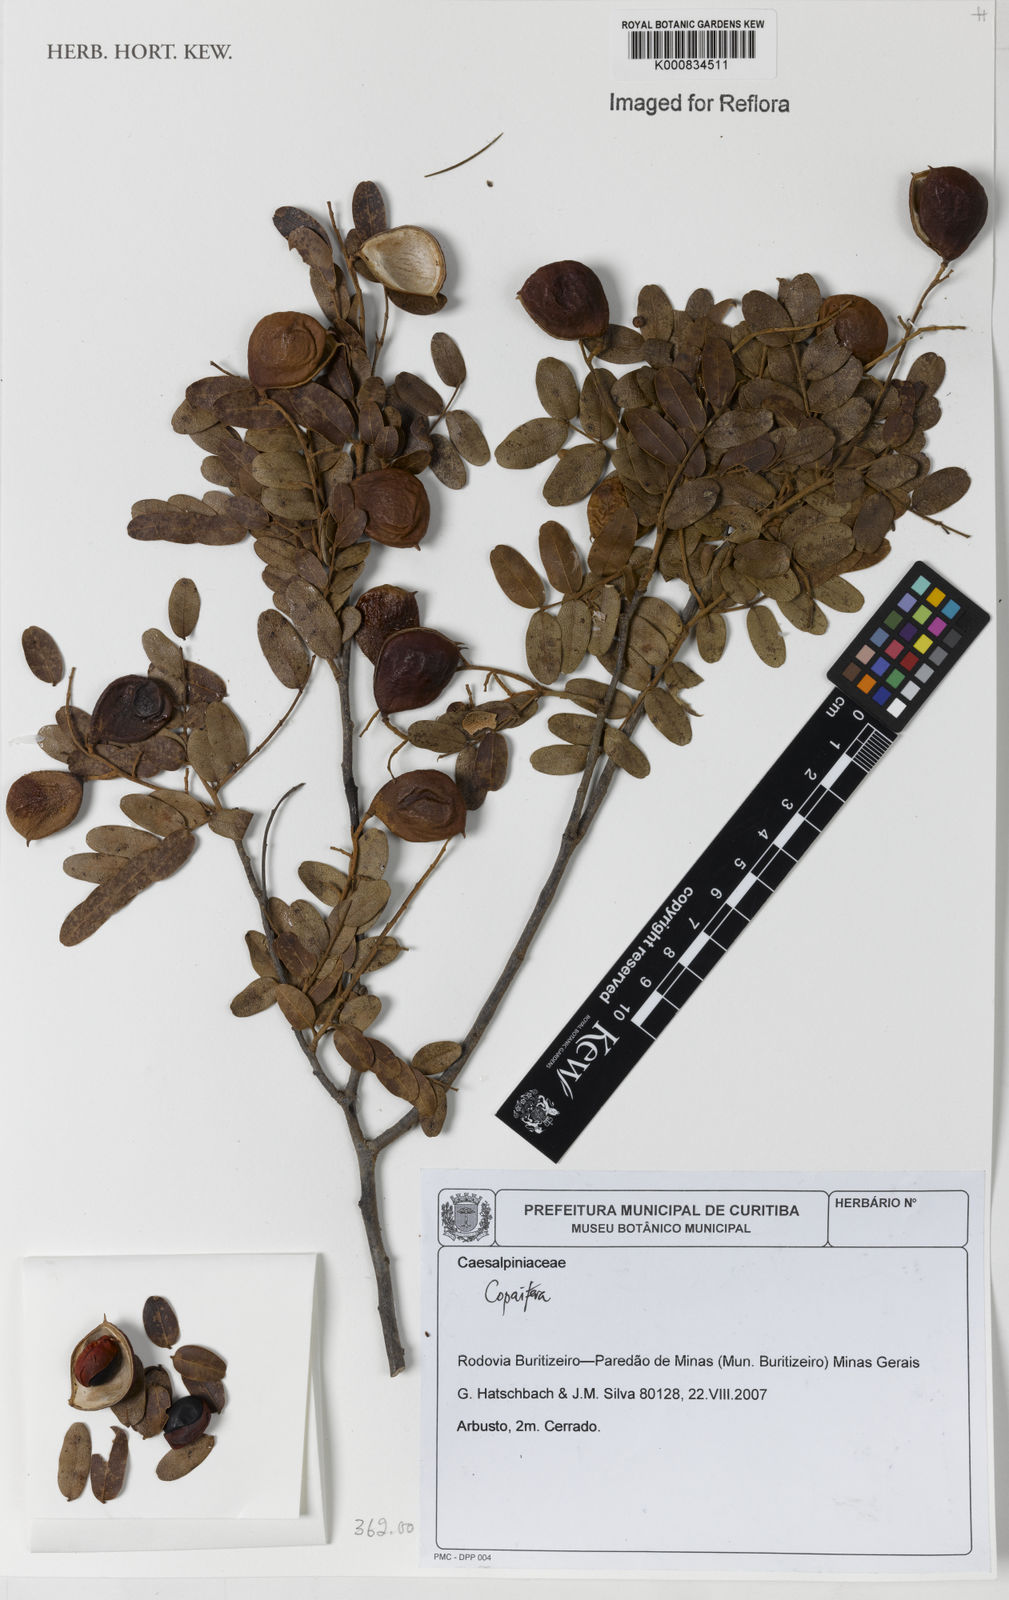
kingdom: Plantae
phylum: Tracheophyta
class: Magnoliopsida
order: Fabales
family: Fabaceae
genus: Copaifera
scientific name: Copaifera
